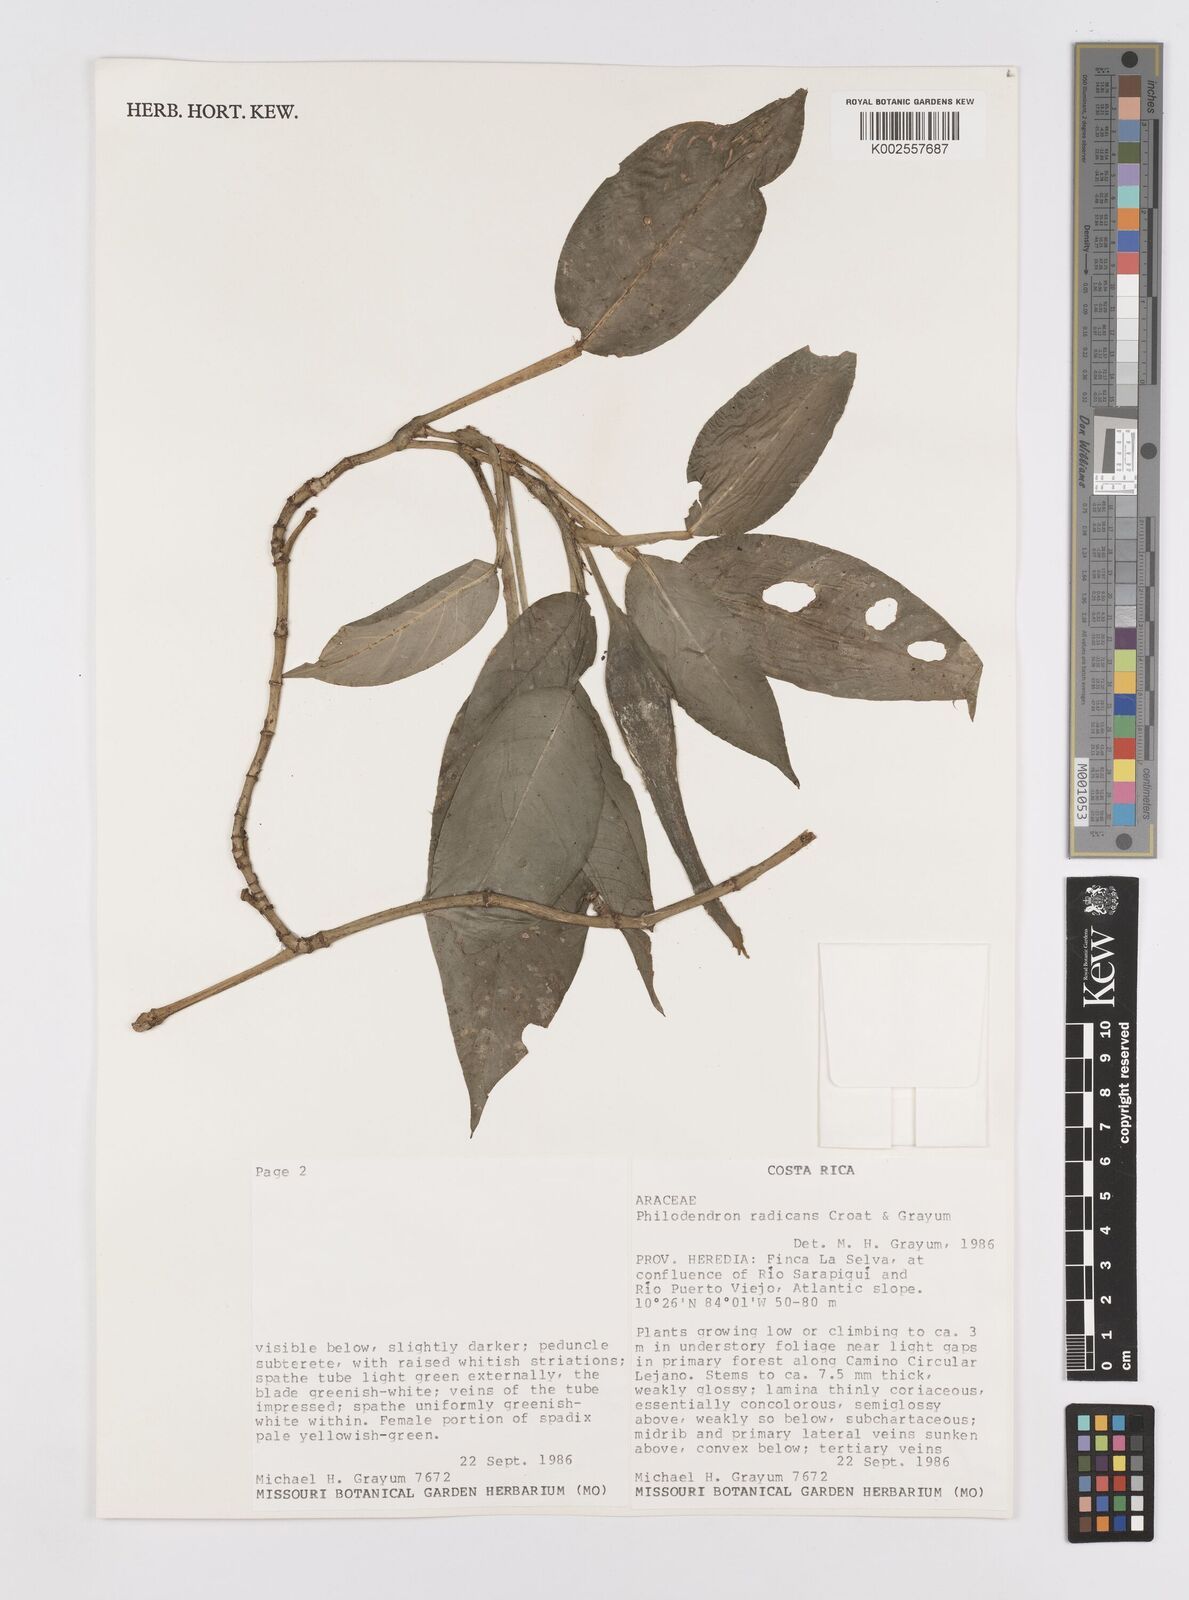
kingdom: Plantae
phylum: Tracheophyta
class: Liliopsida
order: Alismatales
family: Araceae
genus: Philodendron
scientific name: Philodendron
